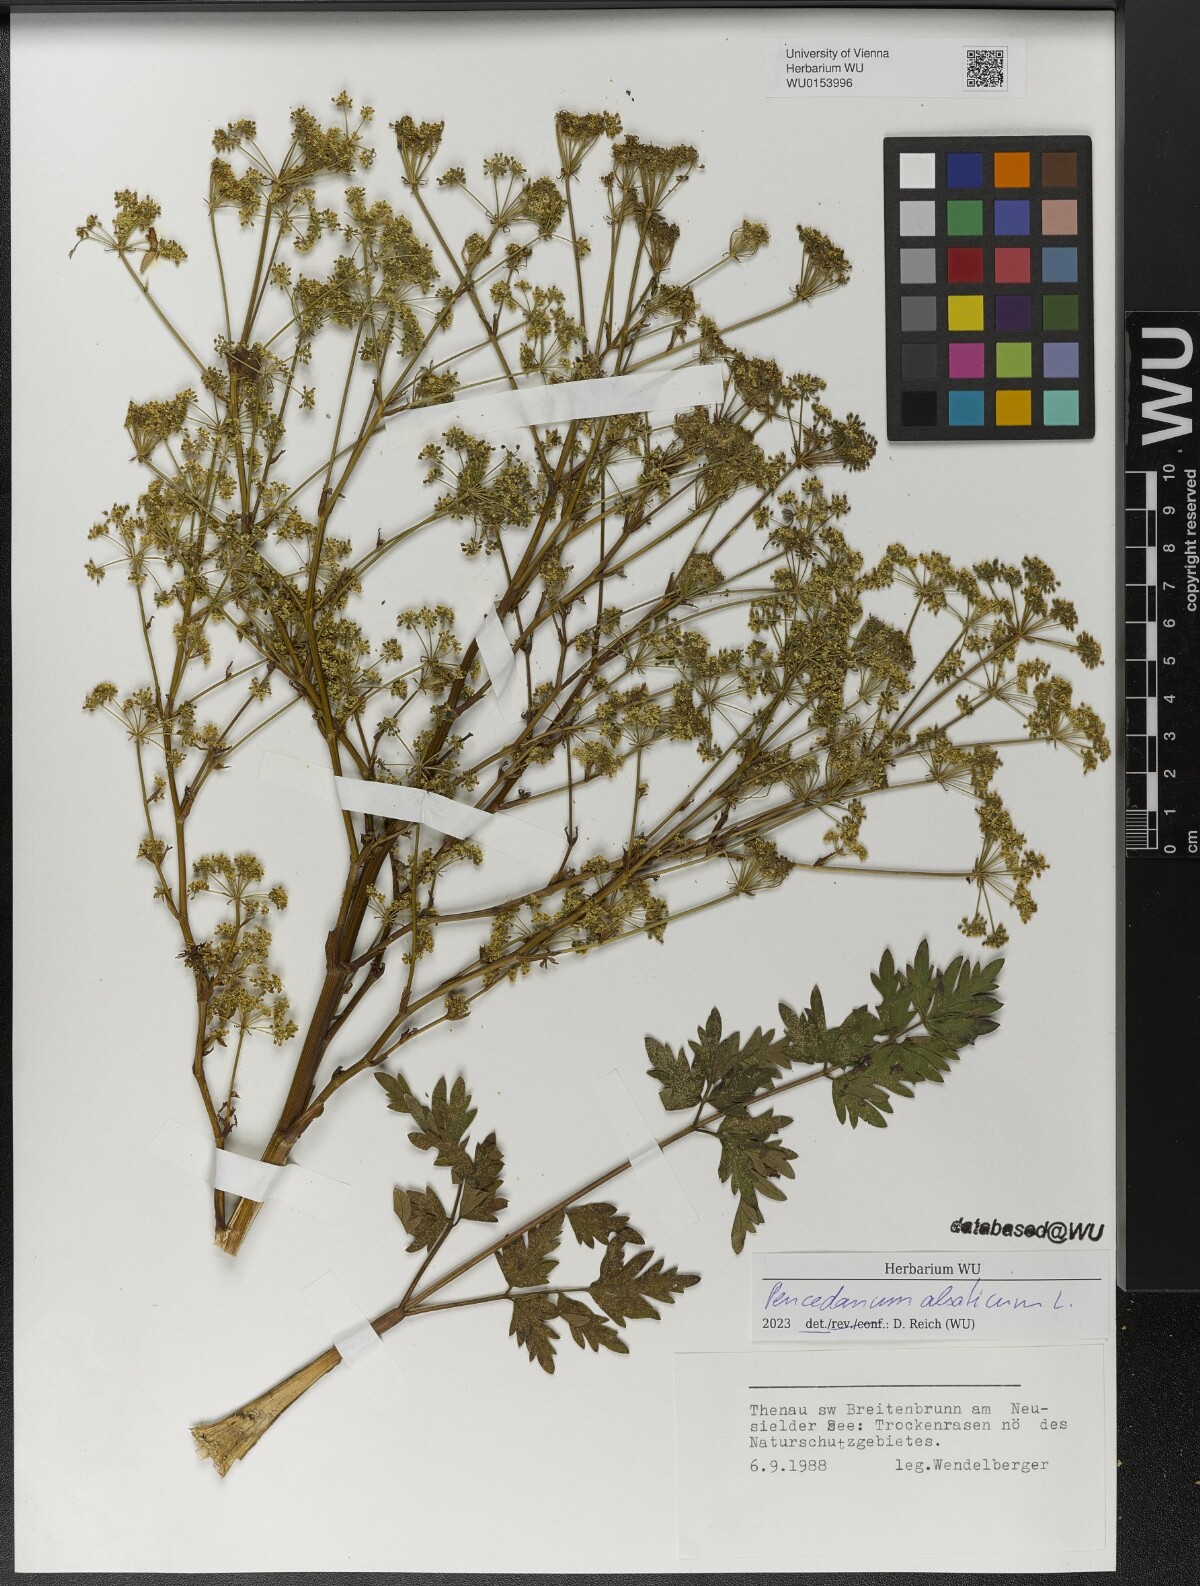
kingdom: Plantae
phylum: Tracheophyta
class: Magnoliopsida
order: Apiales
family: Apiaceae
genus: Xanthoselinum
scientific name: Xanthoselinum alsaticum
